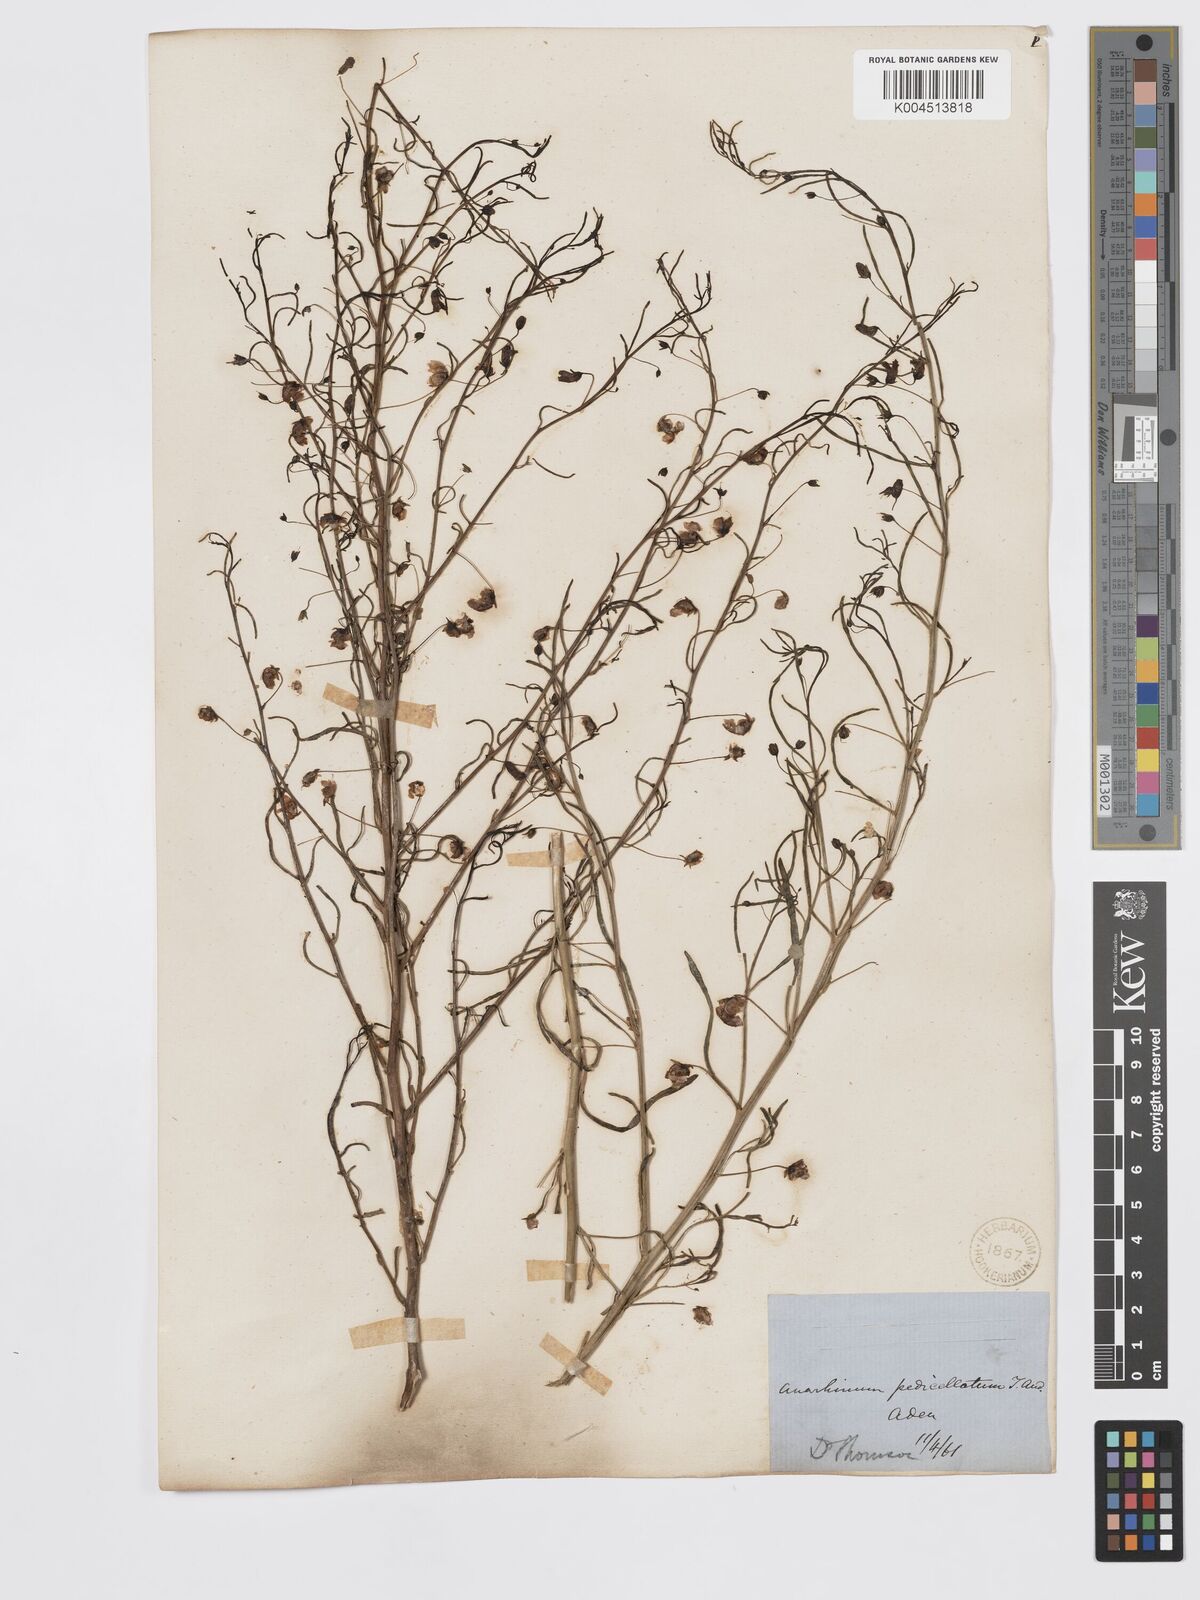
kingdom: Plantae
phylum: Tracheophyta
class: Magnoliopsida
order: Lamiales
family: Plantaginaceae
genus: Schweinfurthia
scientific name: Schweinfurthia pedicellata
